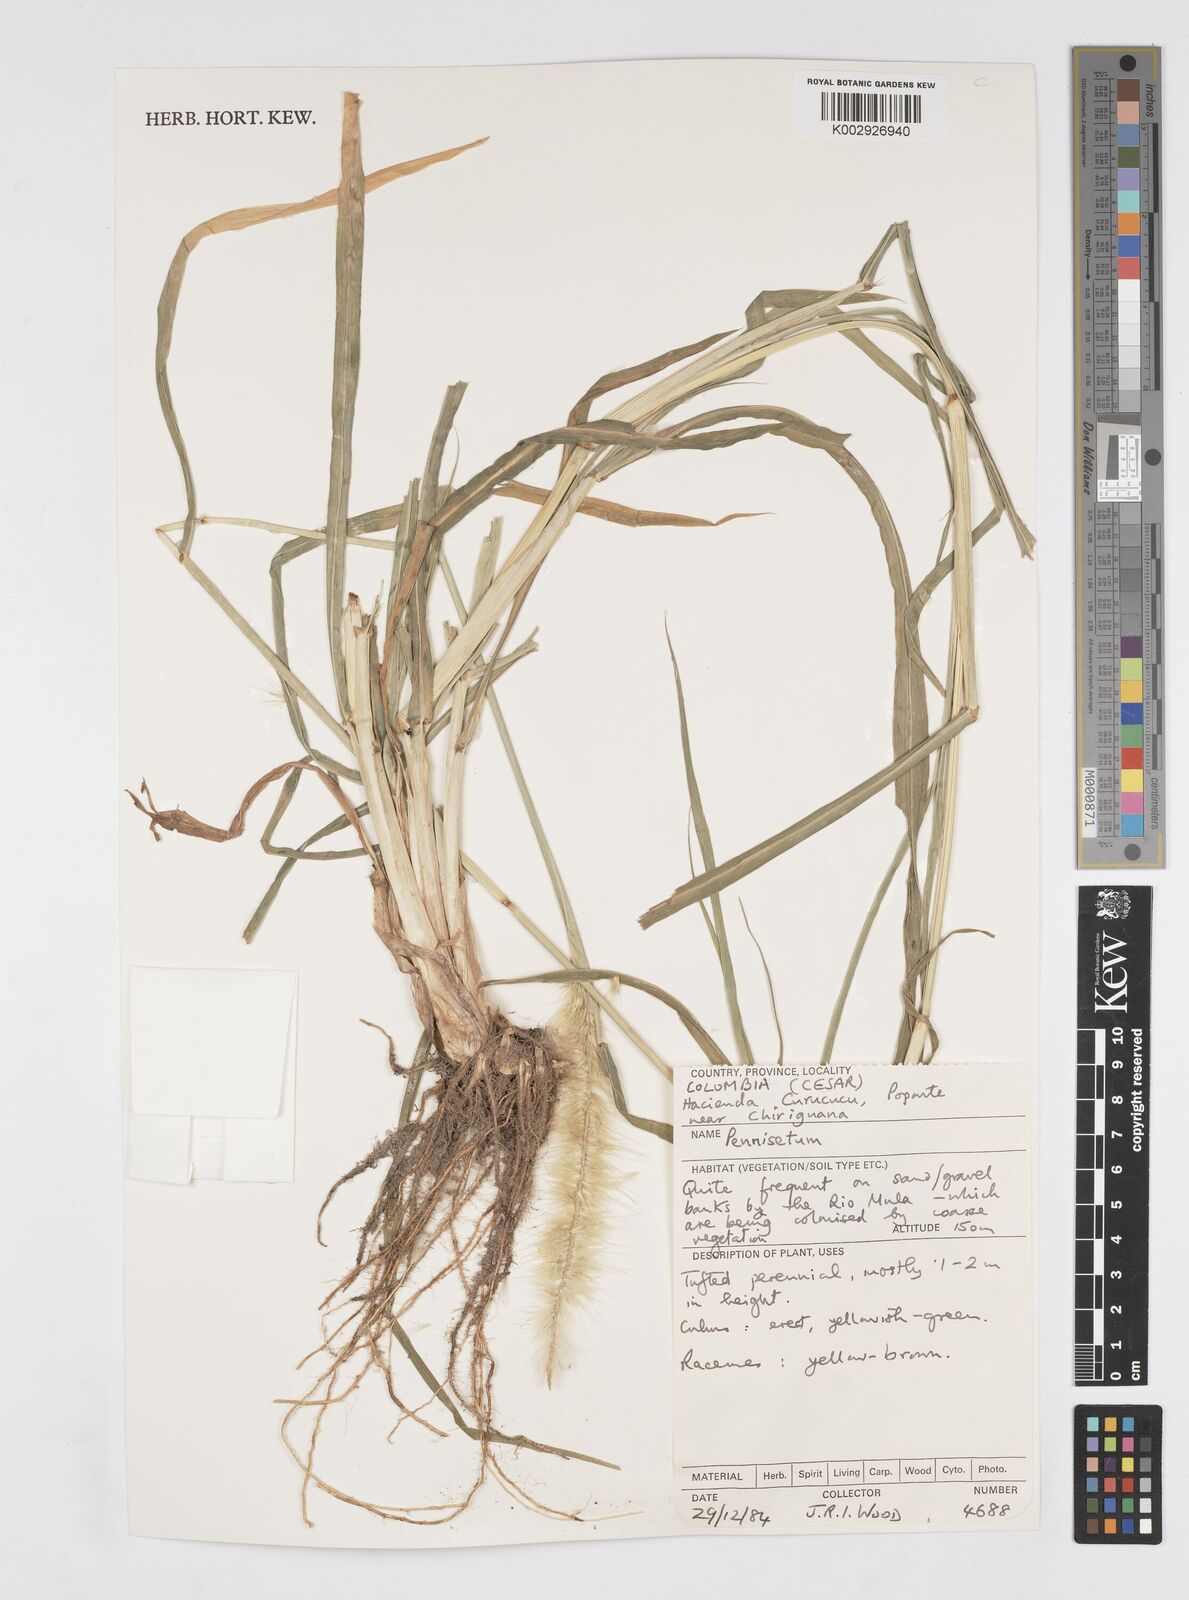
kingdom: Plantae
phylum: Tracheophyta
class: Liliopsida
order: Poales
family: Poaceae
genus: Cenchrus
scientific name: Cenchrus purpureus
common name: Elephant grass
